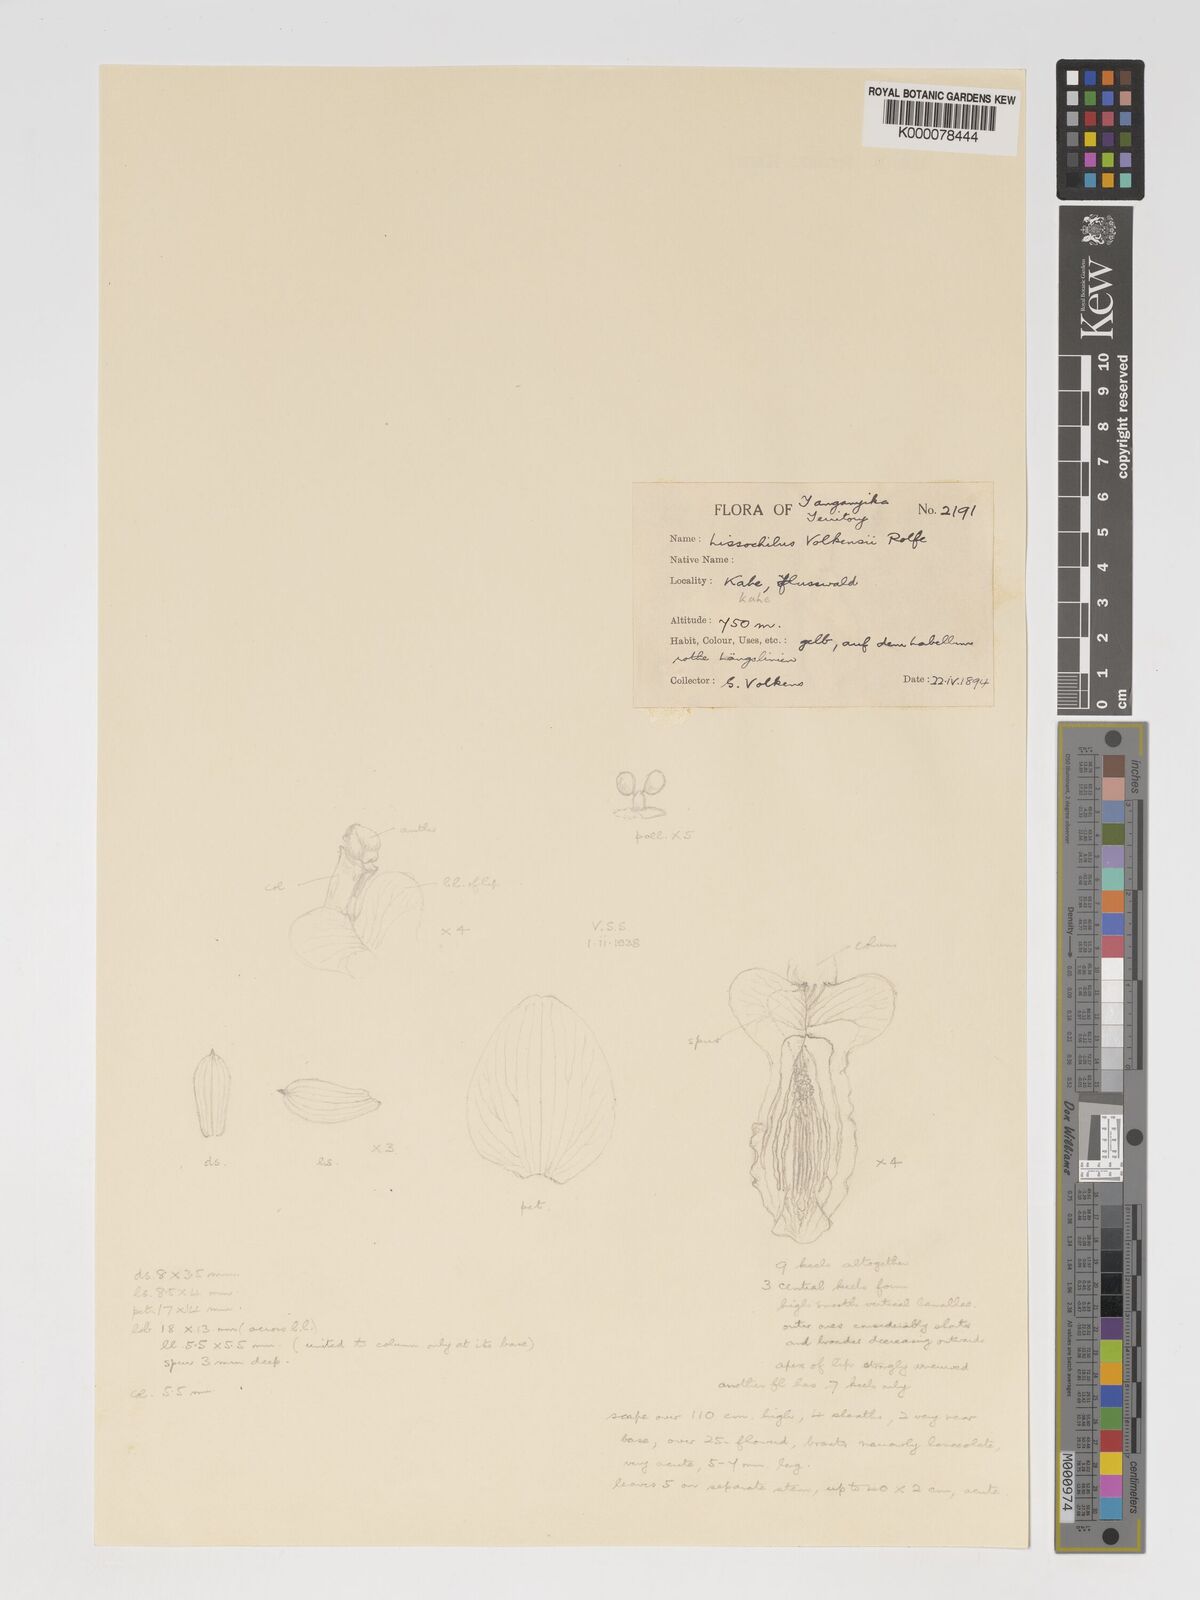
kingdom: Plantae
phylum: Tracheophyta
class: Liliopsida
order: Asparagales
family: Orchidaceae
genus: Eulophia
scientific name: Eulophia speciosa
